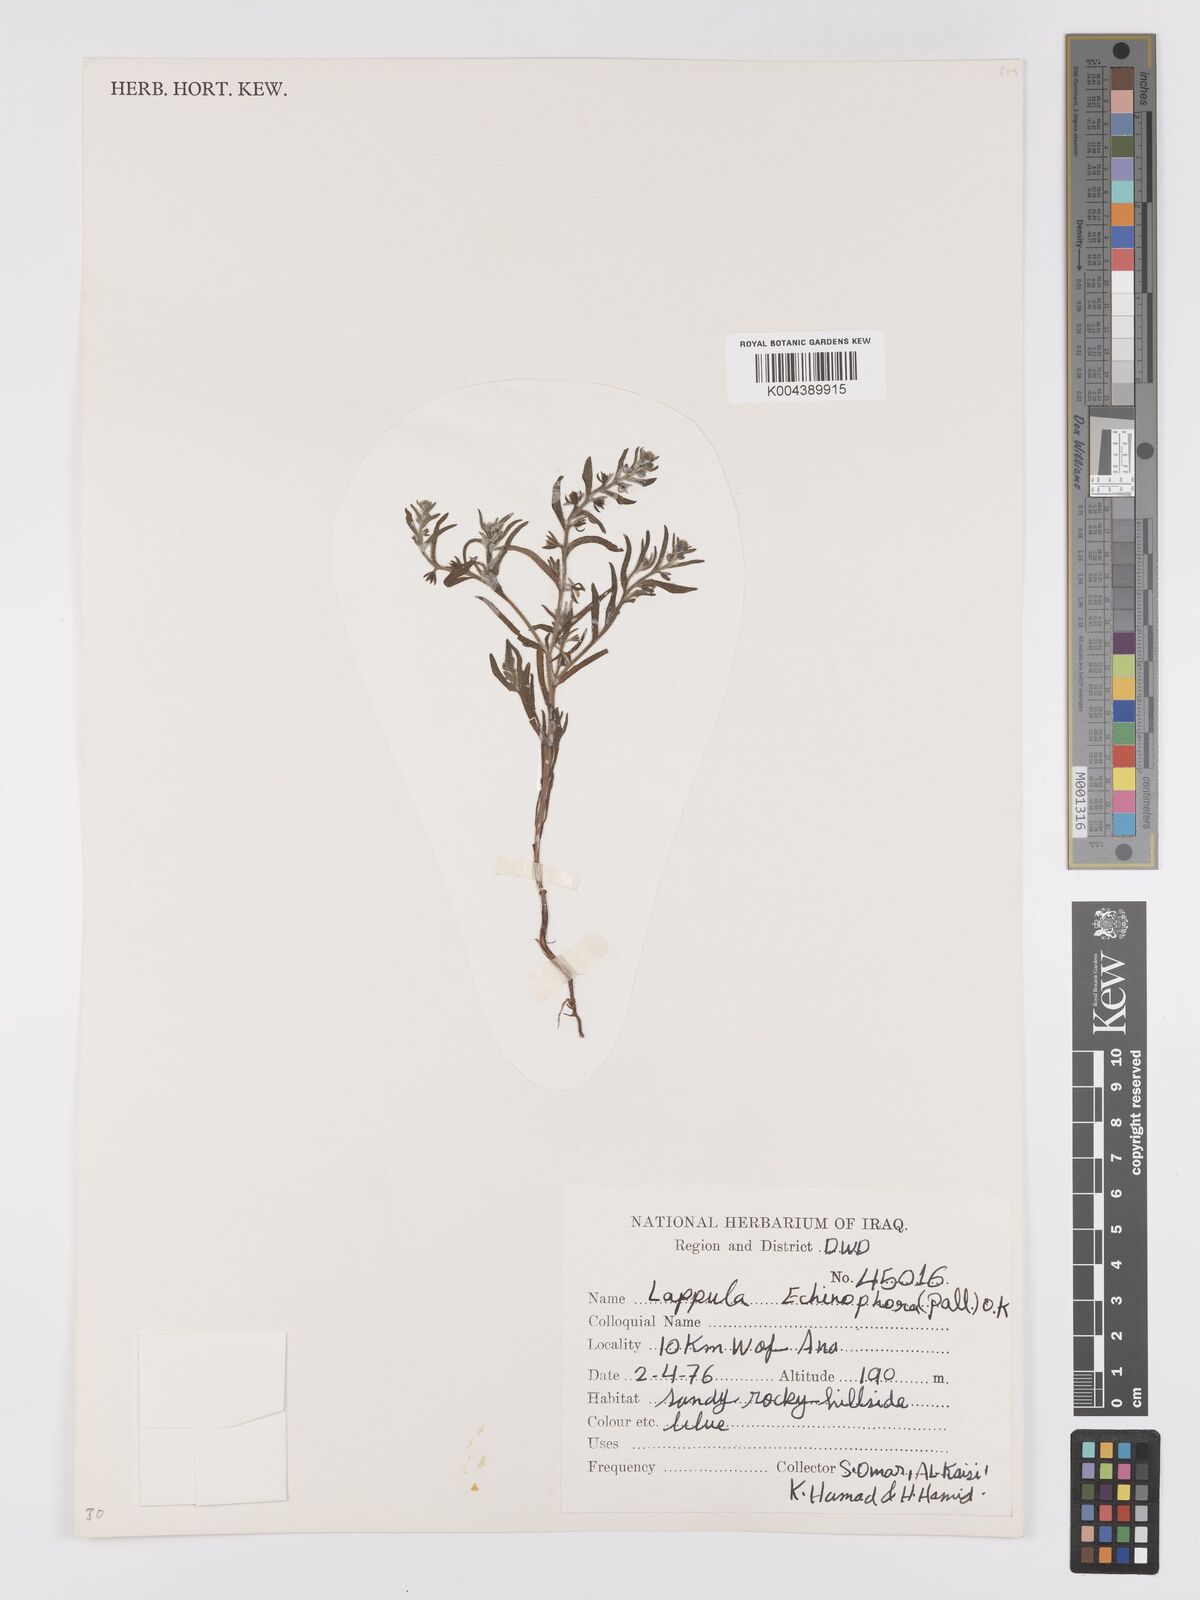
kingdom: Plantae
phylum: Tracheophyta
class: Magnoliopsida
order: Boraginales
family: Boraginaceae
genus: Heterocaryum
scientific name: Heterocaryum echinophorum
